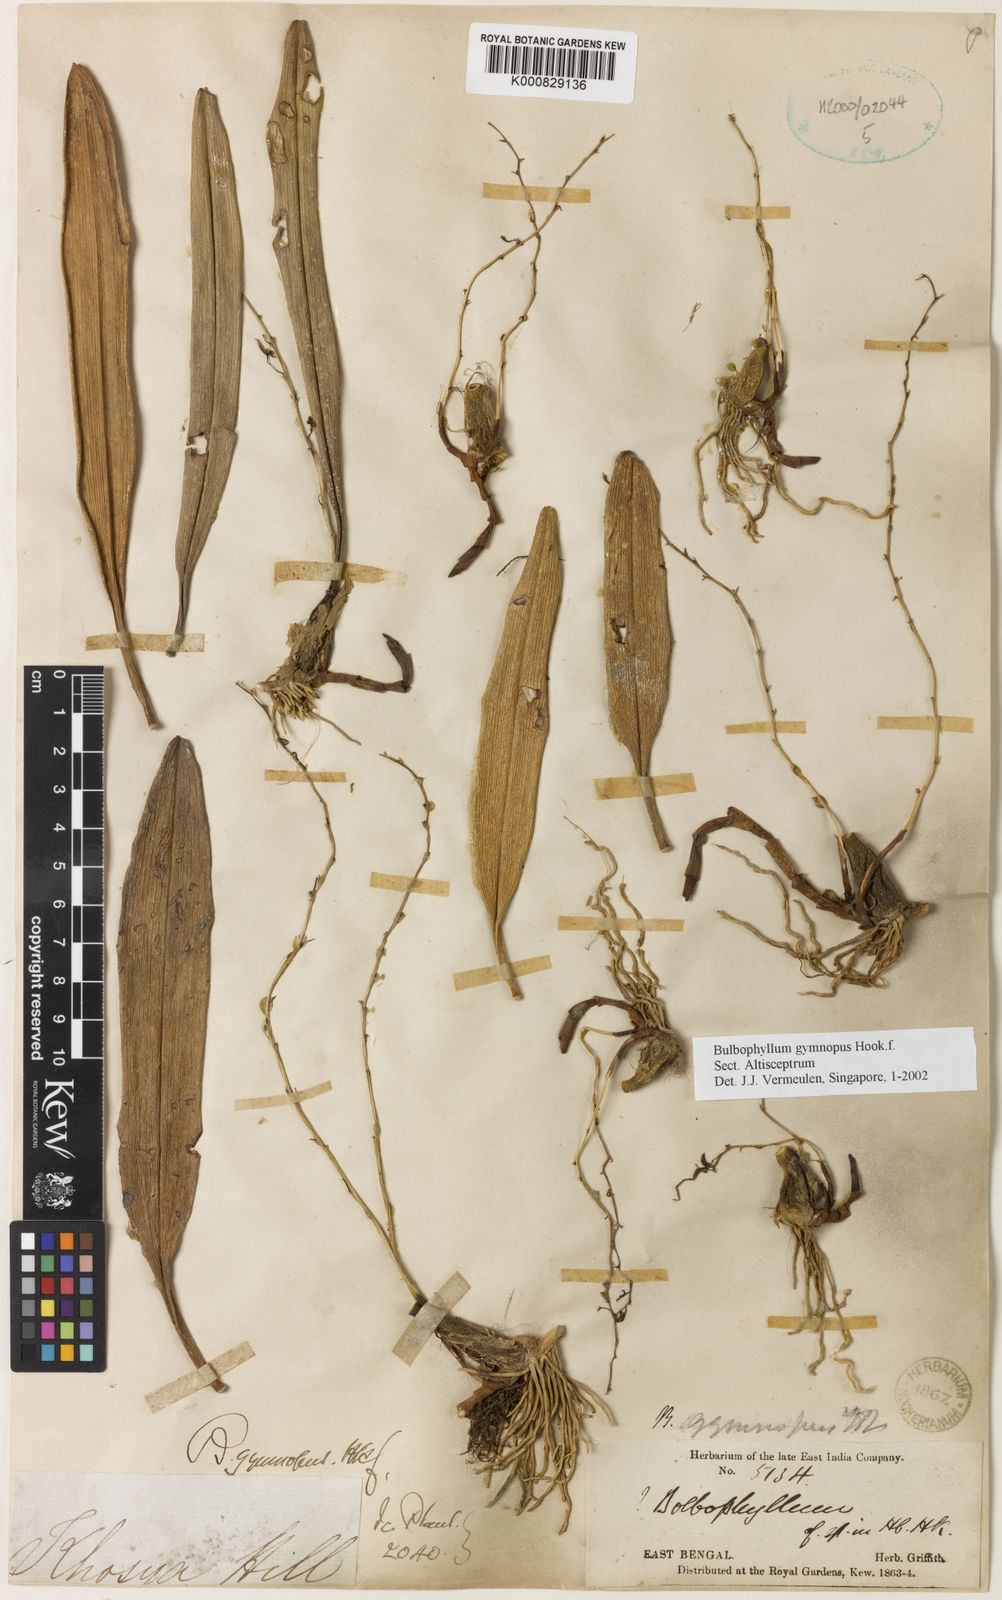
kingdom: Plantae
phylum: Tracheophyta
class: Liliopsida
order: Asparagales
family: Orchidaceae
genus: Bulbophyllum
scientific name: Bulbophyllum gymnopus
